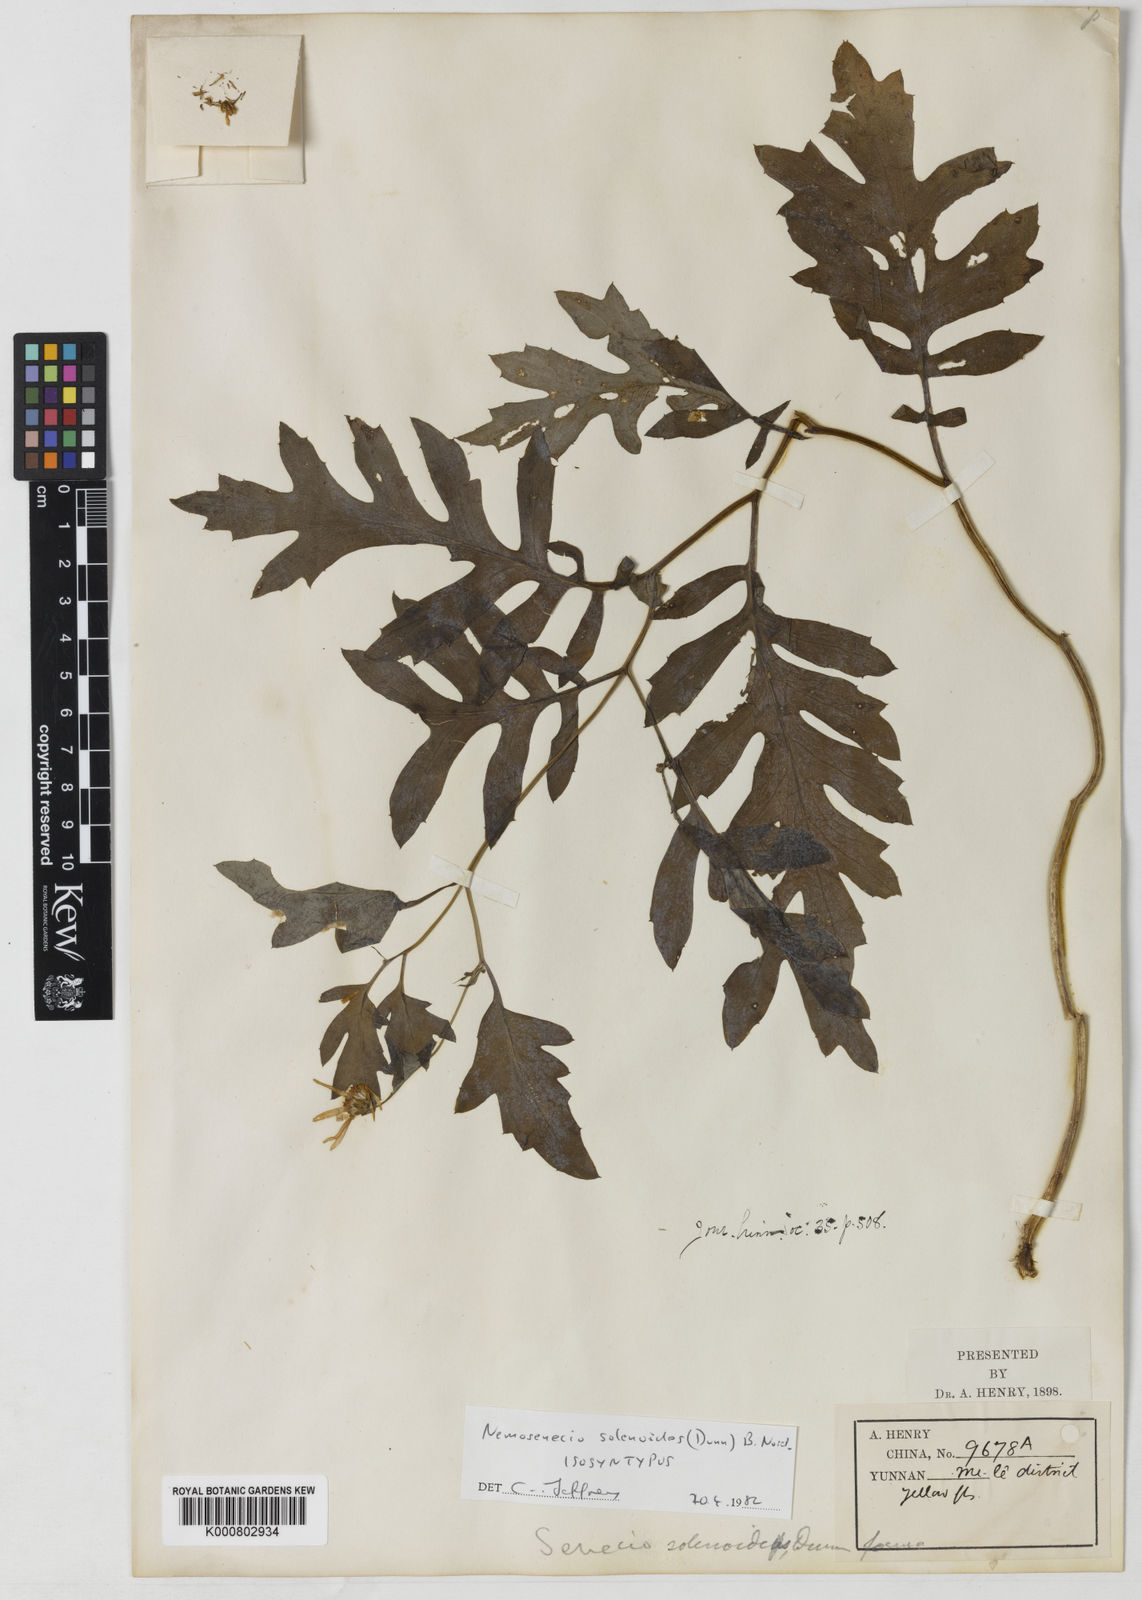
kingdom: Plantae
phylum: Tracheophyta
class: Magnoliopsida
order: Asterales
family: Asteraceae
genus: Nemosenecio
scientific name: Nemosenecio solenoides
